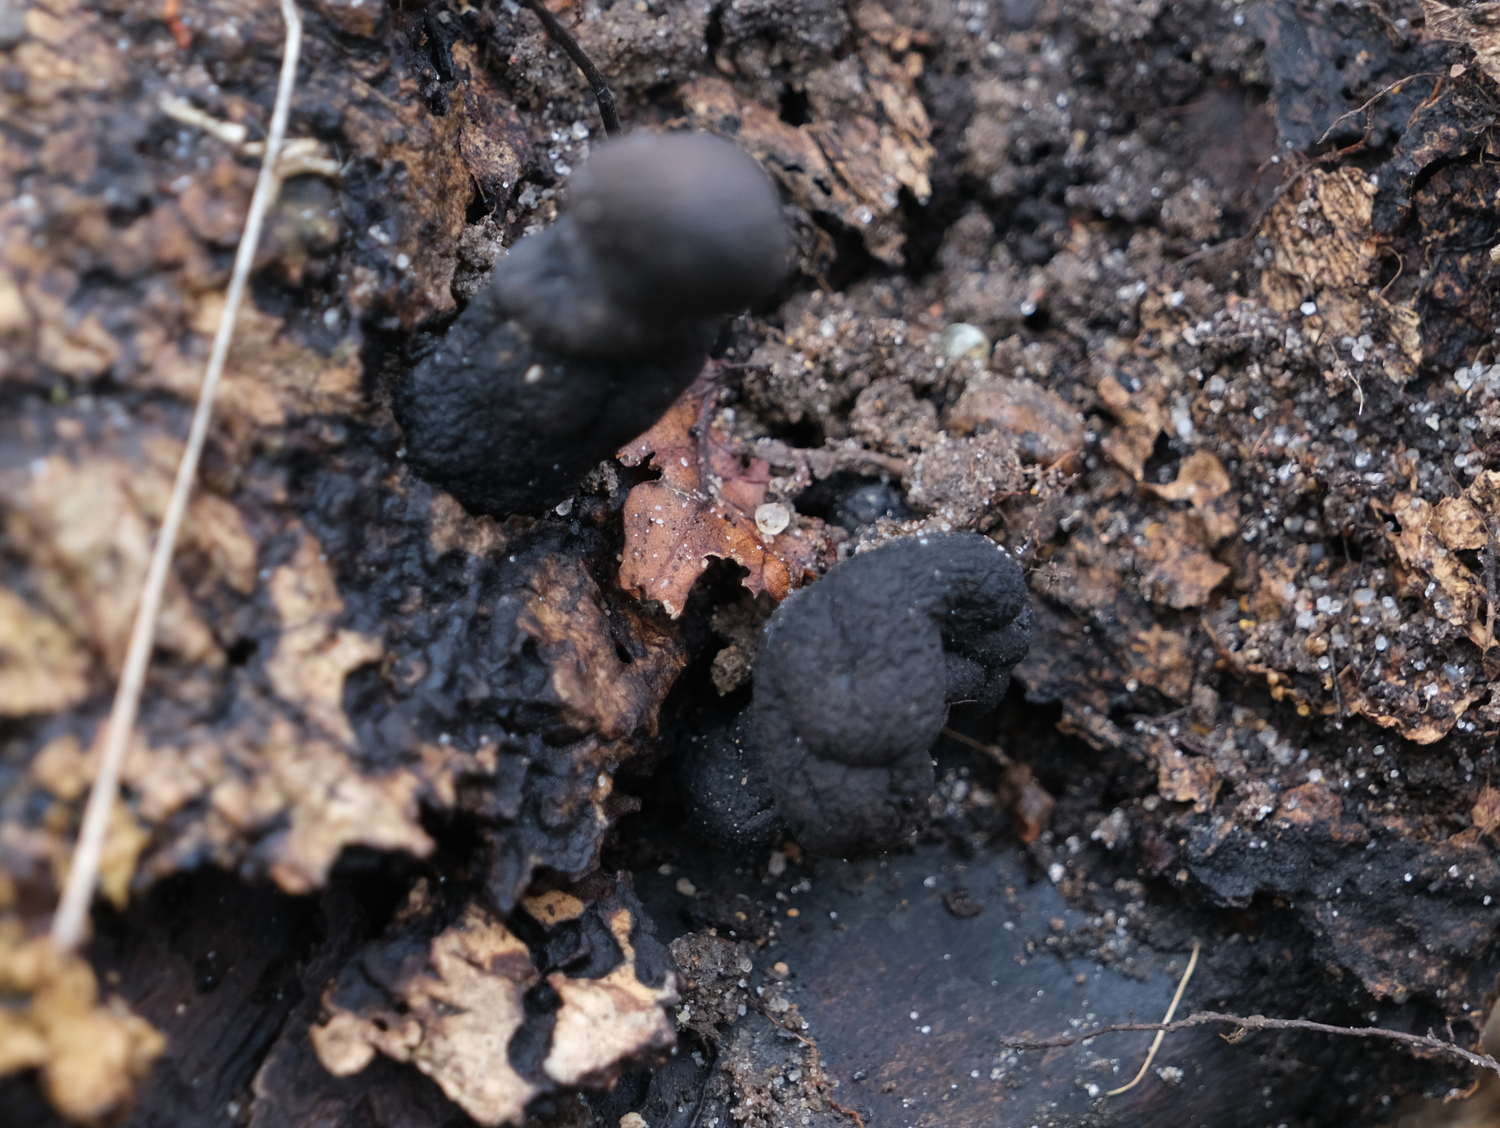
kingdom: Fungi
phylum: Ascomycota
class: Sordariomycetes
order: Xylariales
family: Xylariaceae
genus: Xylaria
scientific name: Xylaria polymorpha
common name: kølle-stødsvamp
